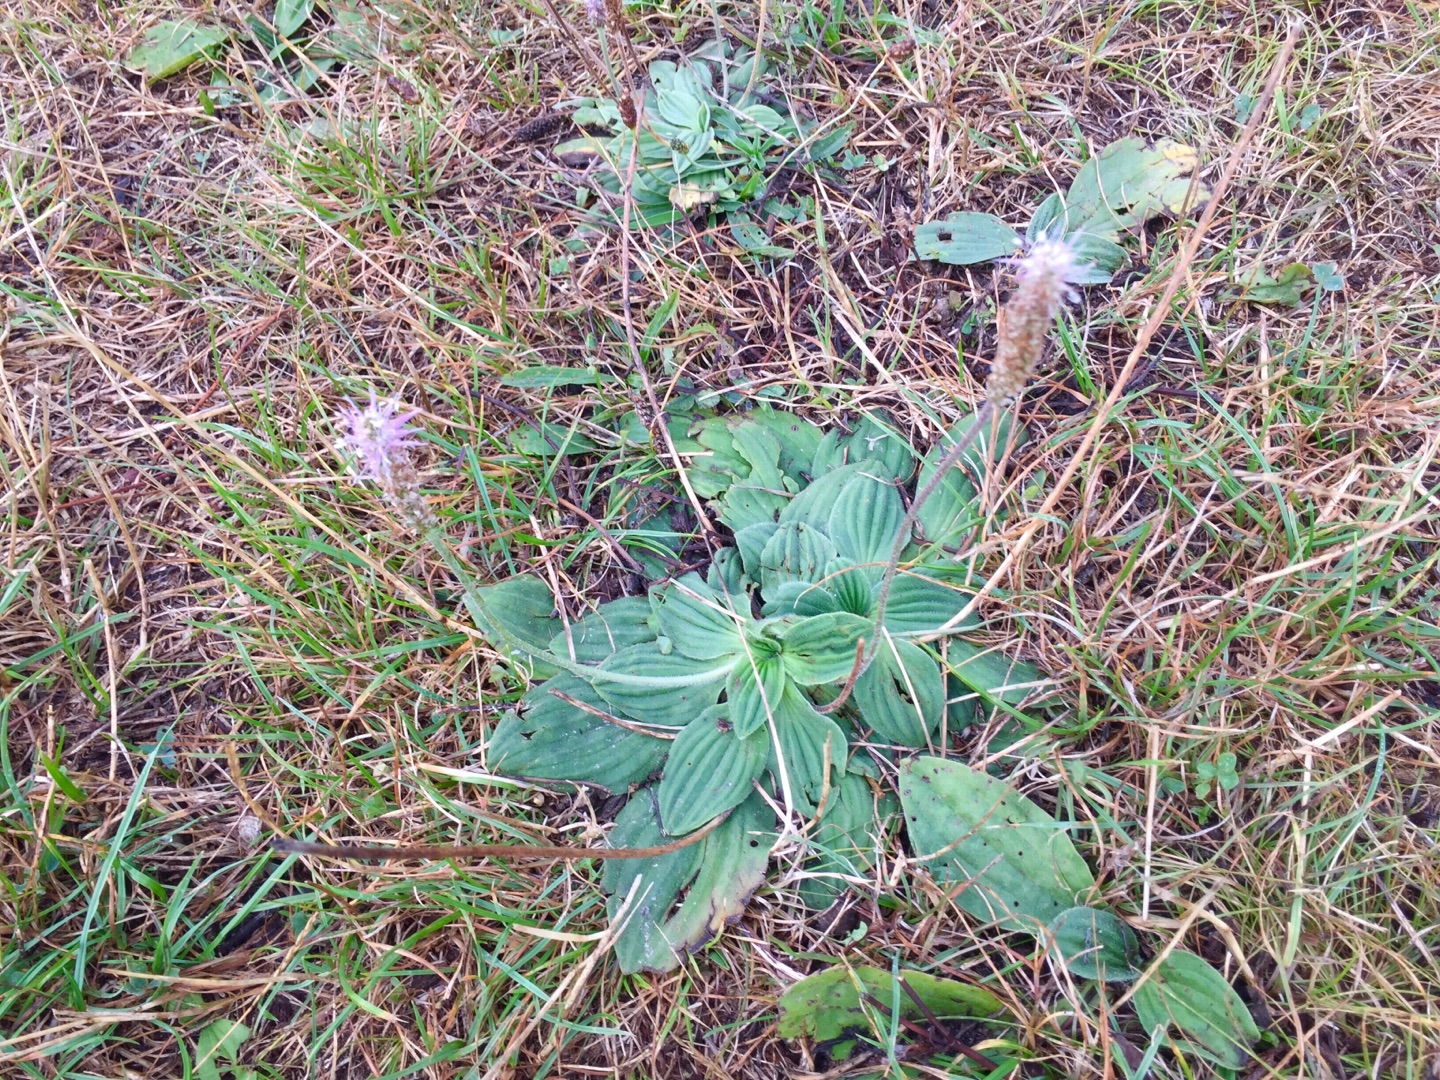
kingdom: Plantae
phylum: Tracheophyta
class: Magnoliopsida
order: Lamiales
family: Plantaginaceae
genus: Plantago
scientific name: Plantago media
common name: Dunet vejbred
